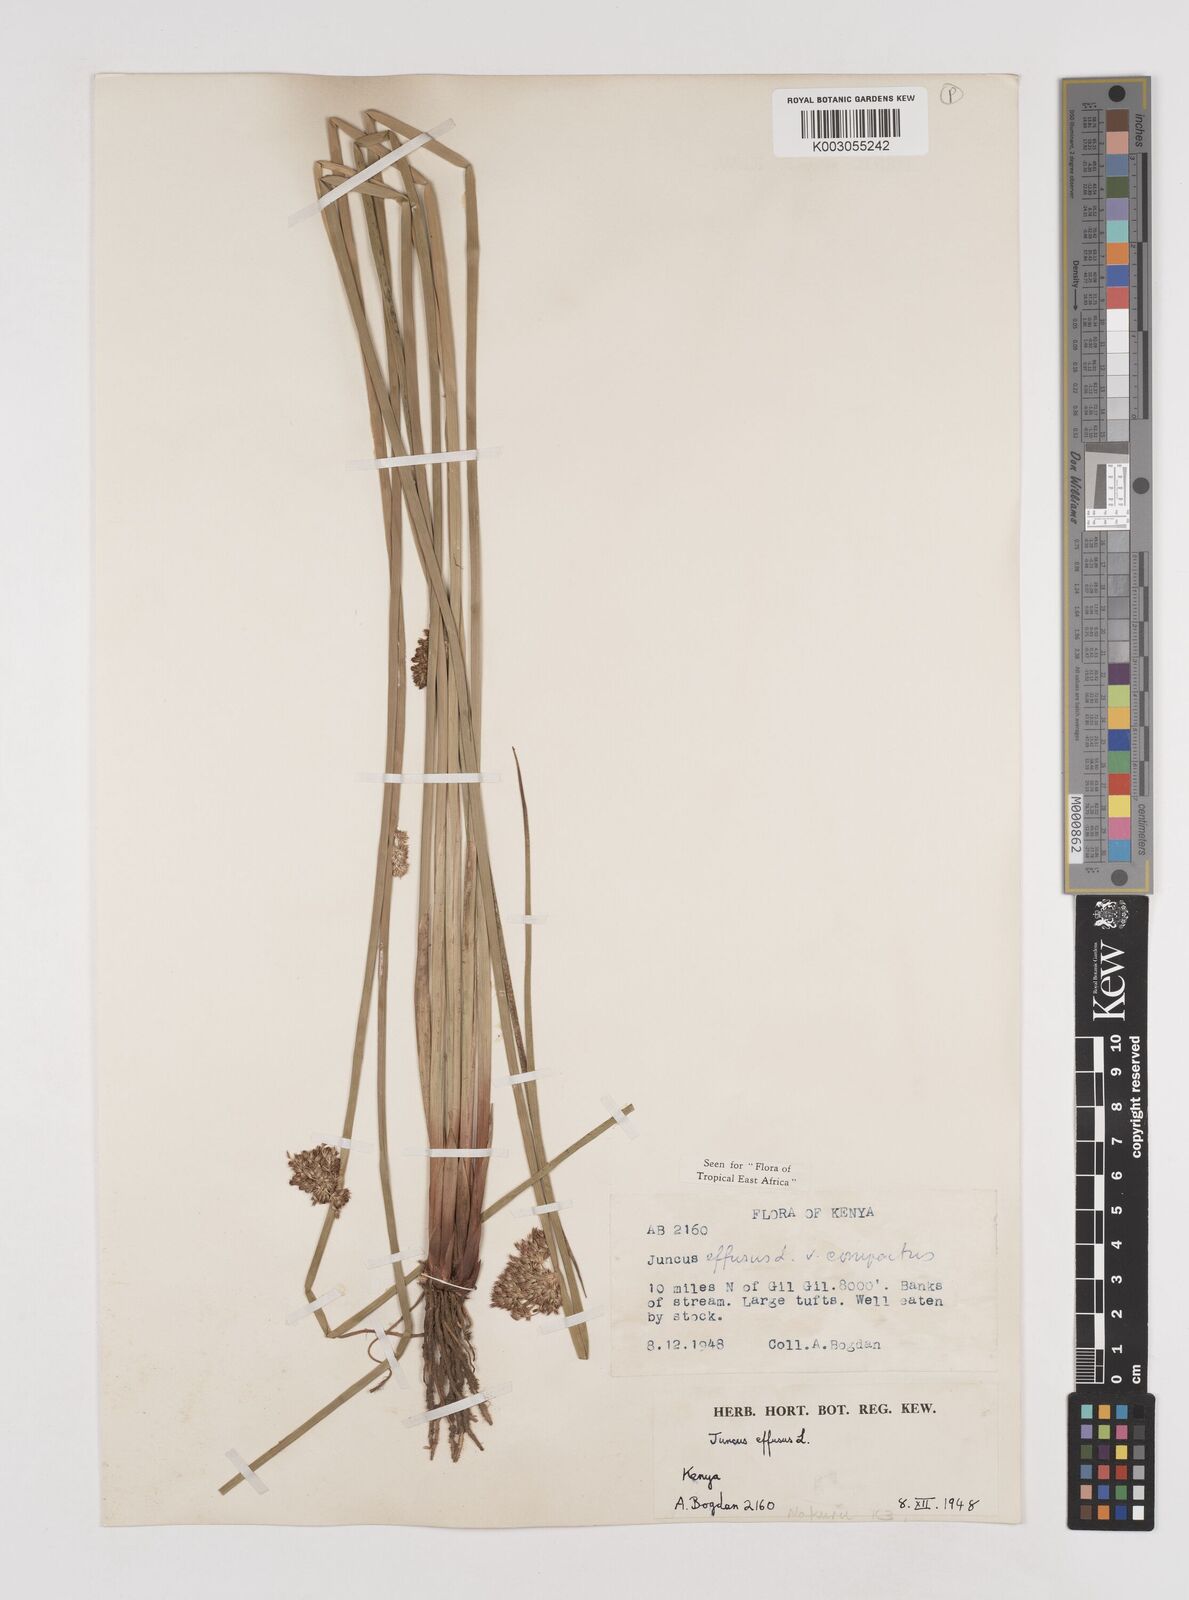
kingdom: Plantae
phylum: Tracheophyta
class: Liliopsida
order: Poales
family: Juncaceae
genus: Juncus
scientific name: Juncus effusus
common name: Soft rush
